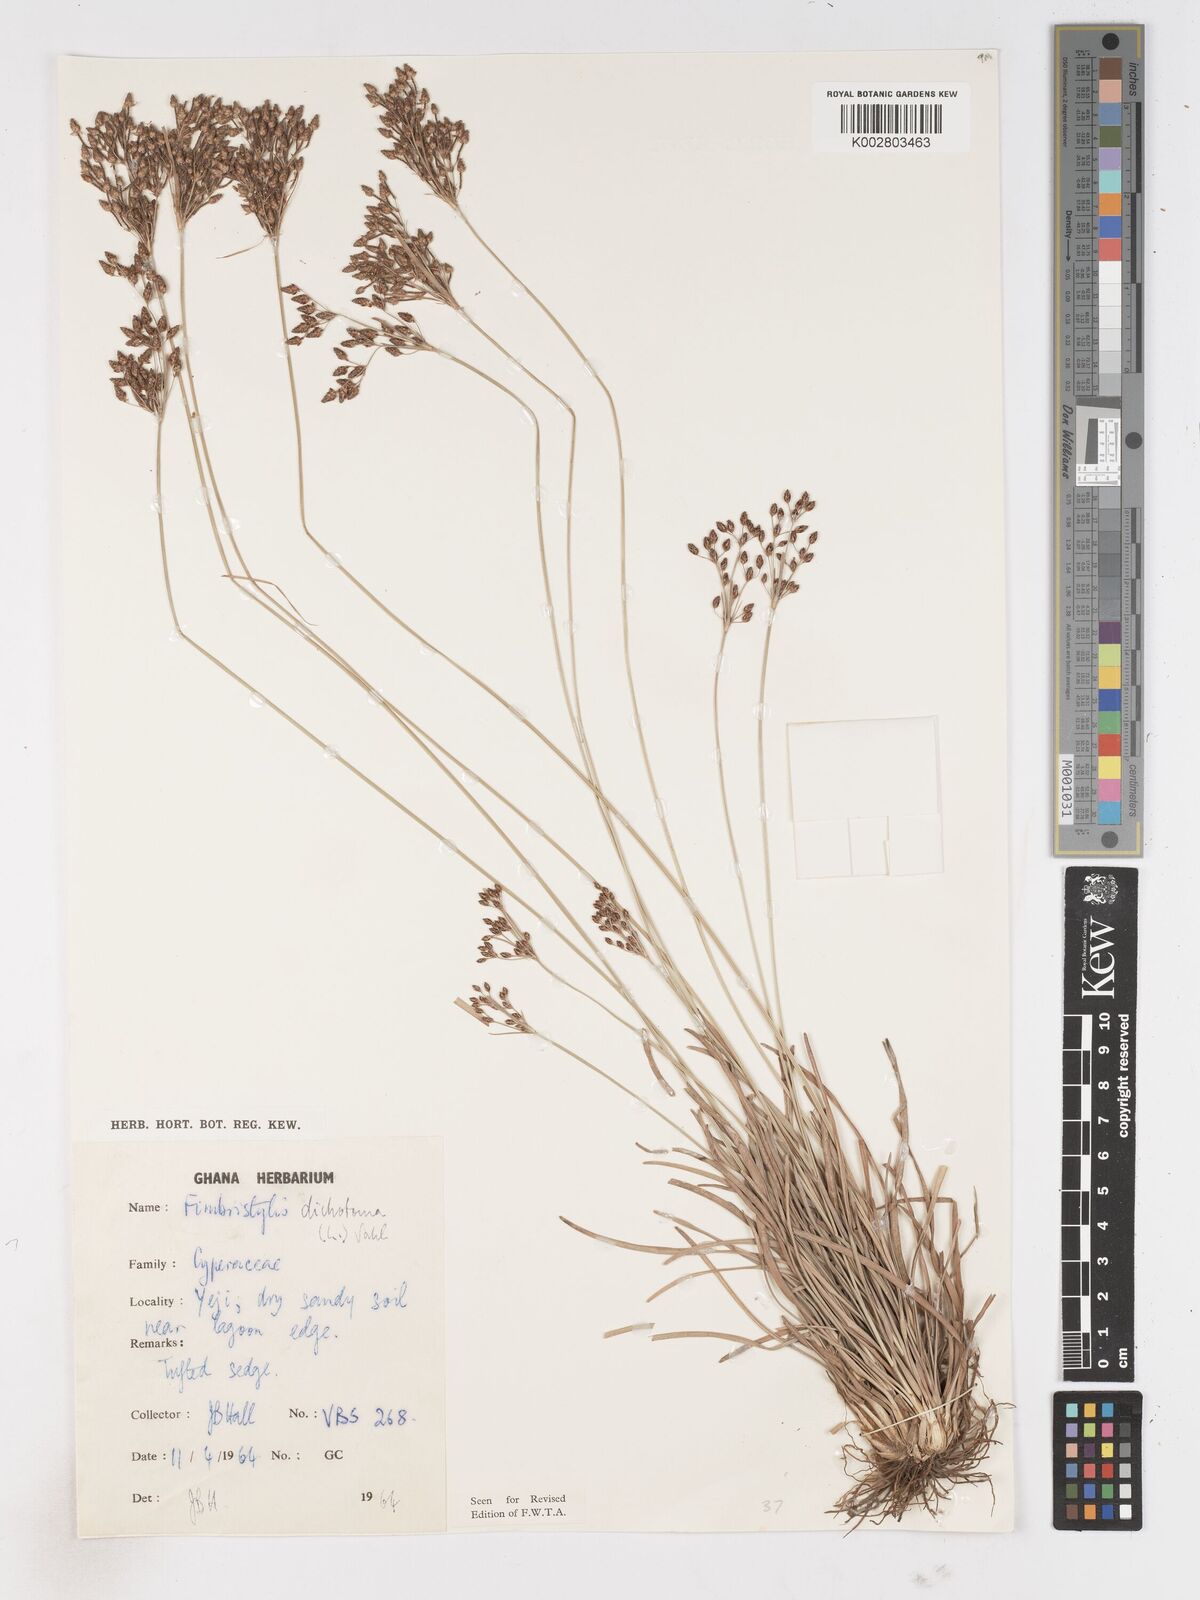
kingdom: Plantae
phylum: Tracheophyta
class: Liliopsida
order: Poales
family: Cyperaceae
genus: Fimbristylis
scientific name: Fimbristylis dichotoma
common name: Forked fimbry
